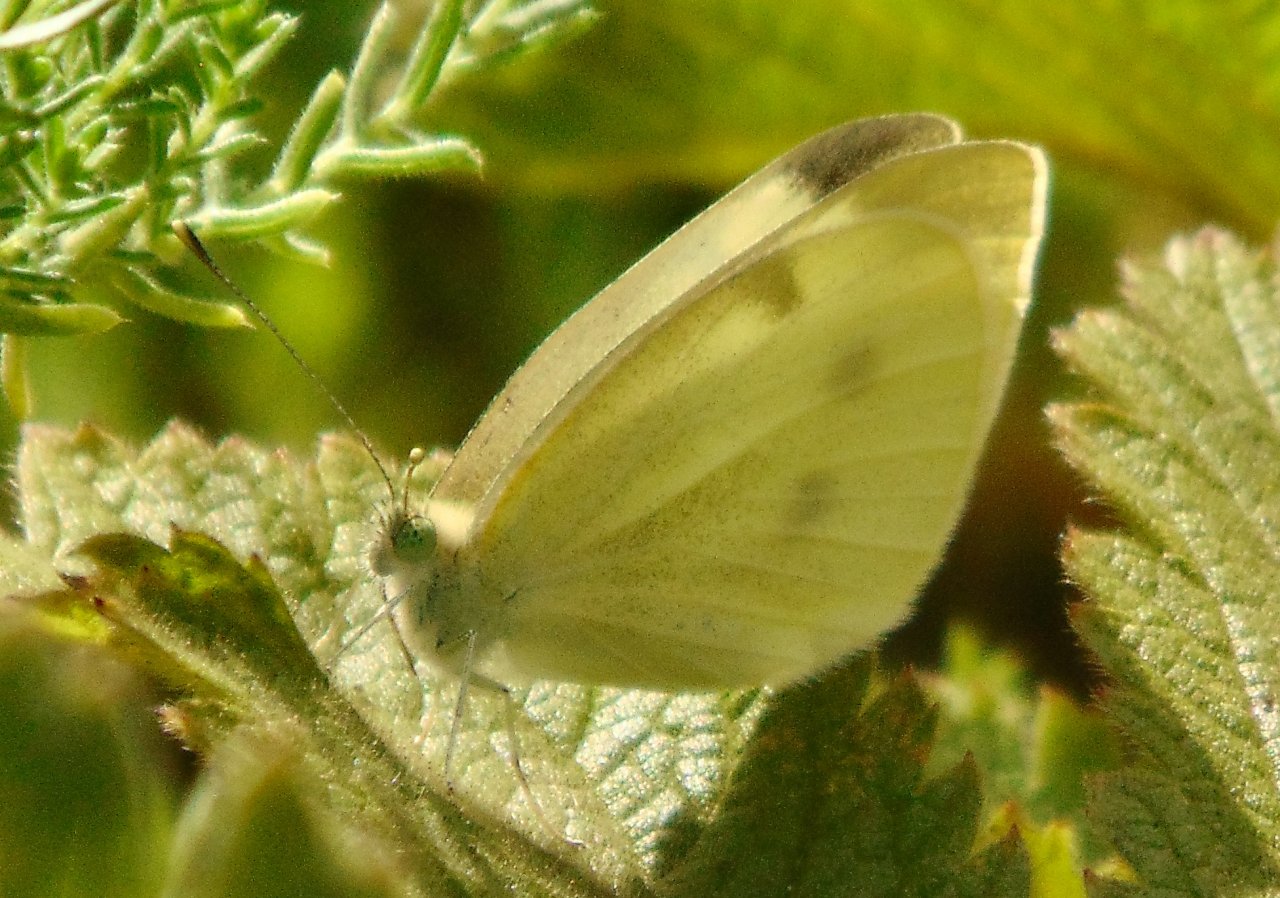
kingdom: Animalia
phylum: Arthropoda
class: Insecta
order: Lepidoptera
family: Pieridae
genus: Pieris
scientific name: Pieris rapae
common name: Cabbage White
